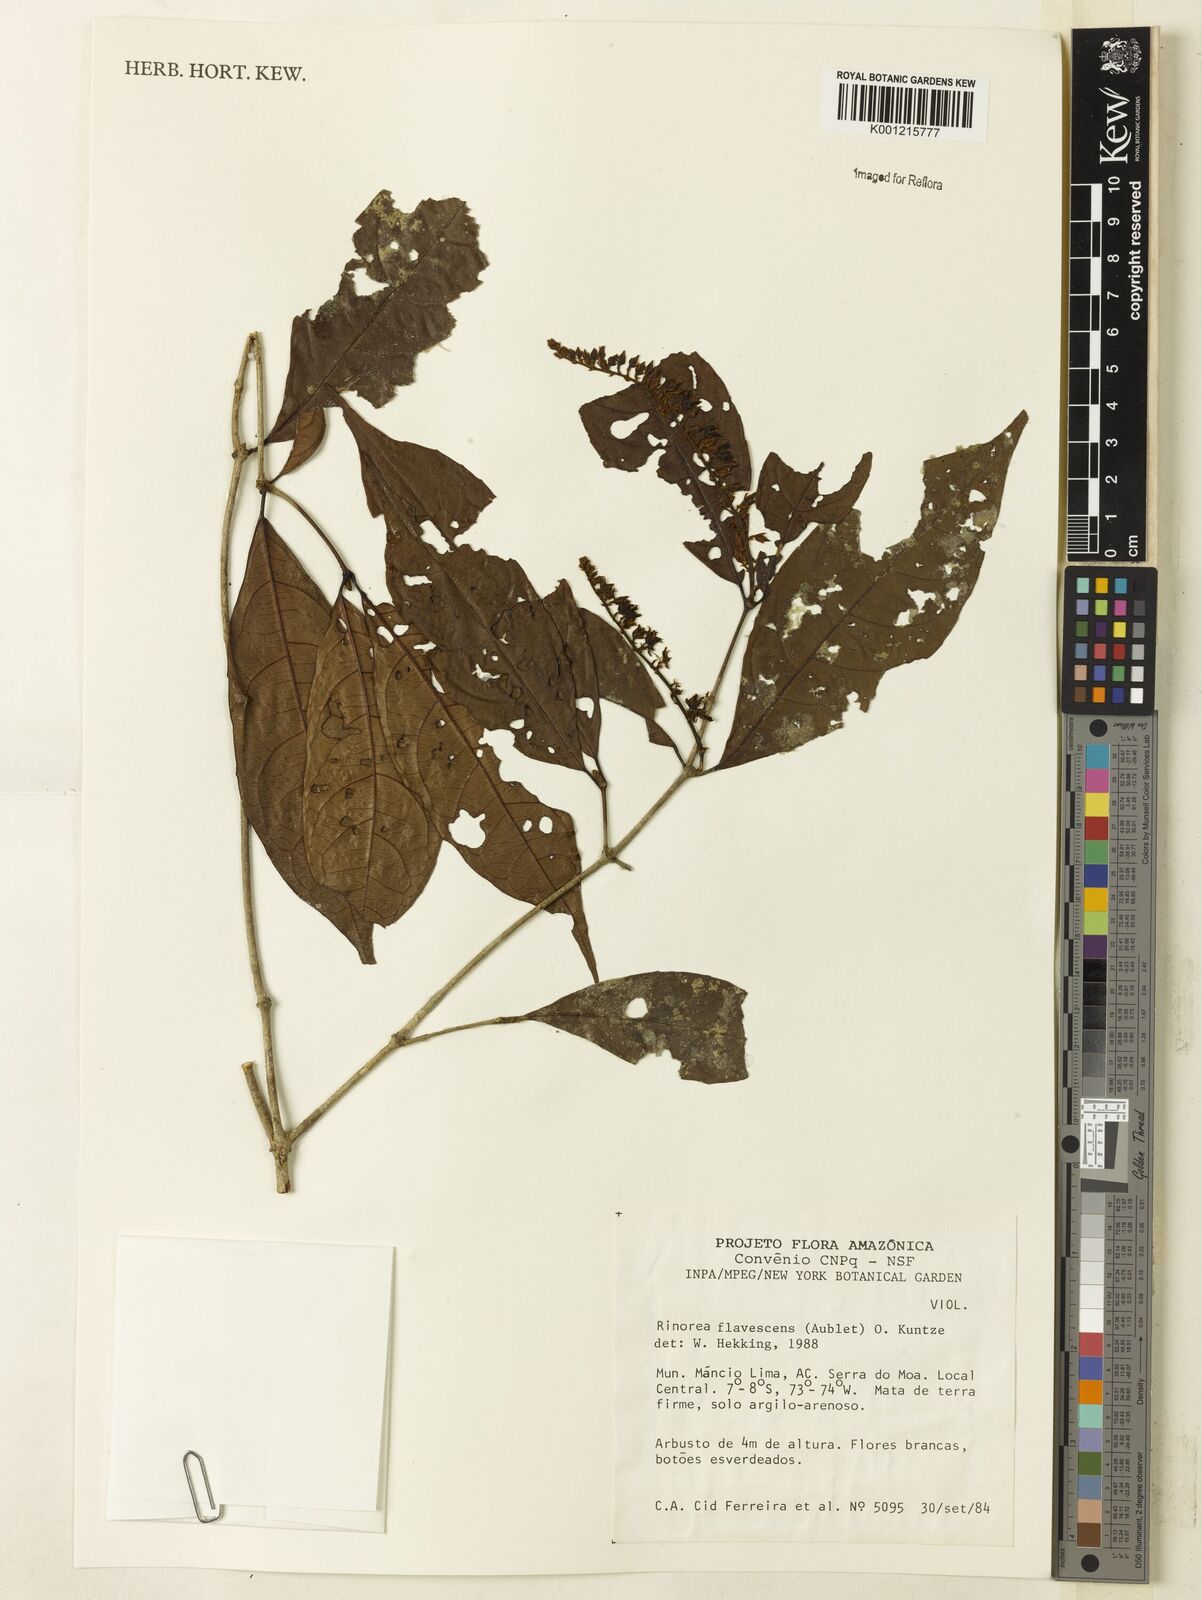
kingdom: Plantae
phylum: Tracheophyta
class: Magnoliopsida
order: Malpighiales
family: Violaceae
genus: Rinorea
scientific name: Rinorea flavescens
